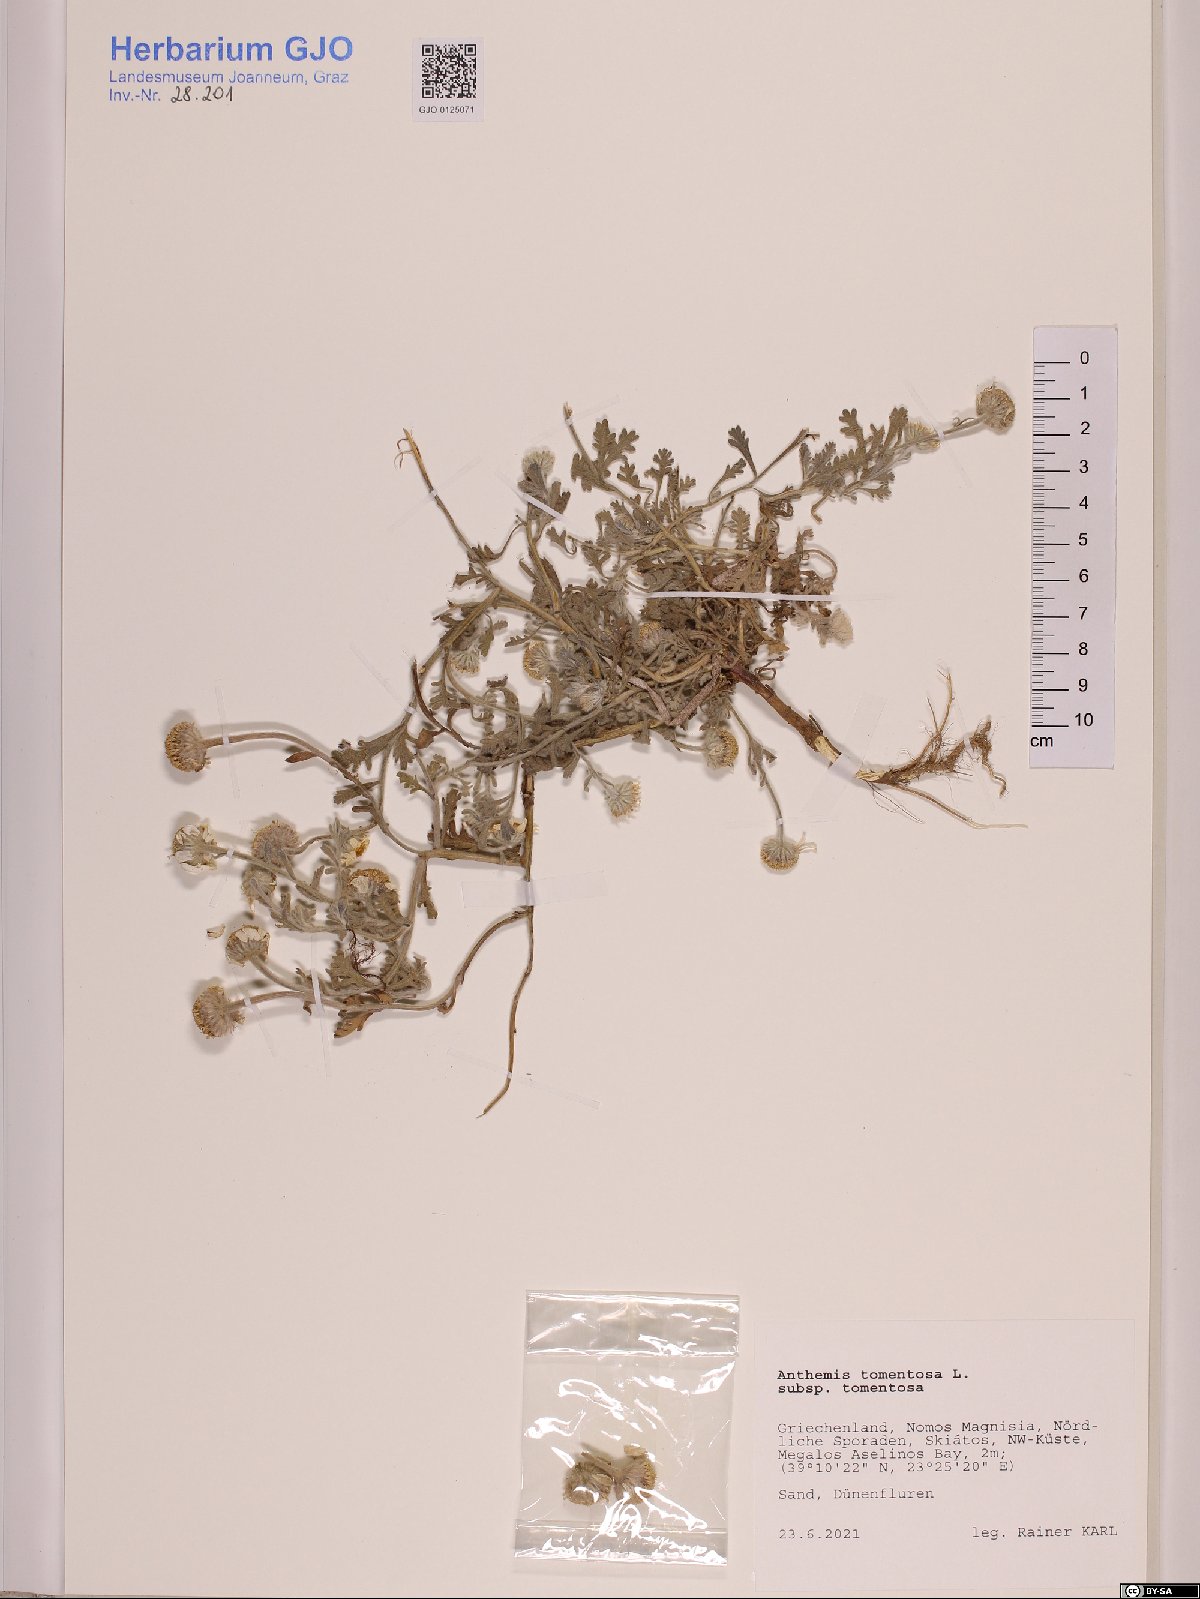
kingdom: Plantae
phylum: Tracheophyta
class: Magnoliopsida
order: Asterales
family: Asteraceae
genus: Anthemis
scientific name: Anthemis tomentosa
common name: Woolly chamomile
